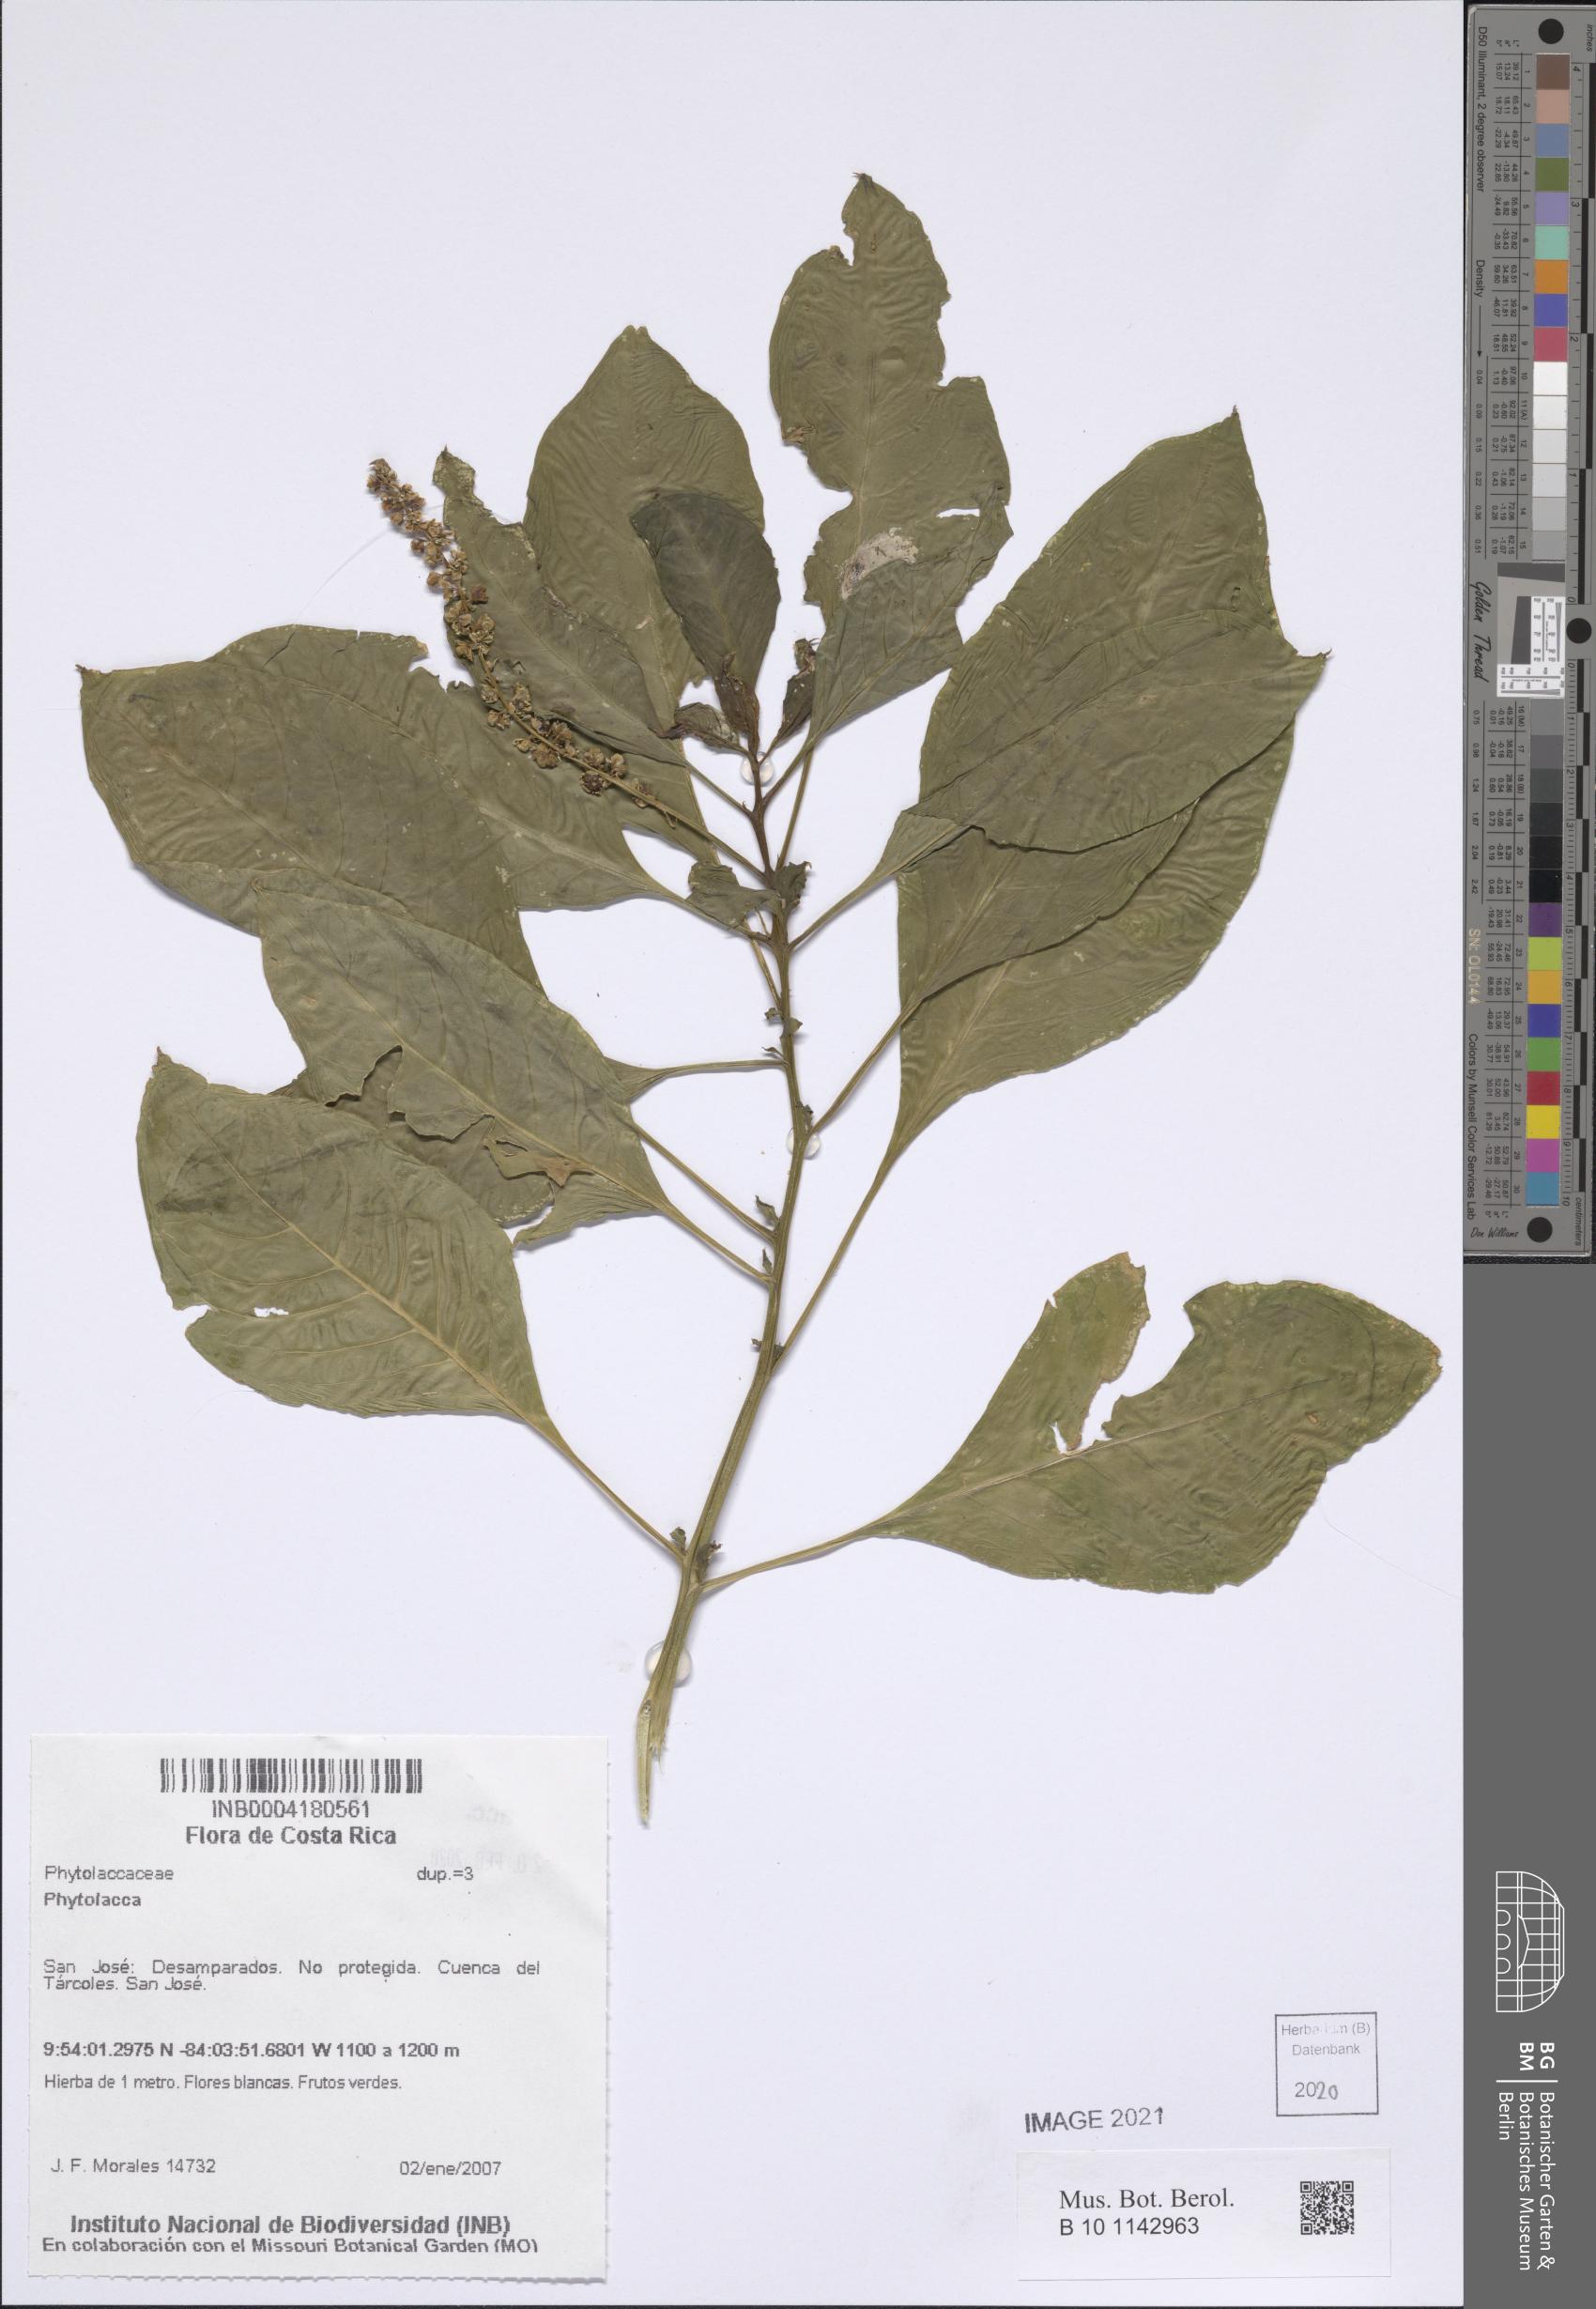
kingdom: Plantae
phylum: Tracheophyta
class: Magnoliopsida
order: Caryophyllales
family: Phytolaccaceae
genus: Phytolacca
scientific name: Phytolacca
